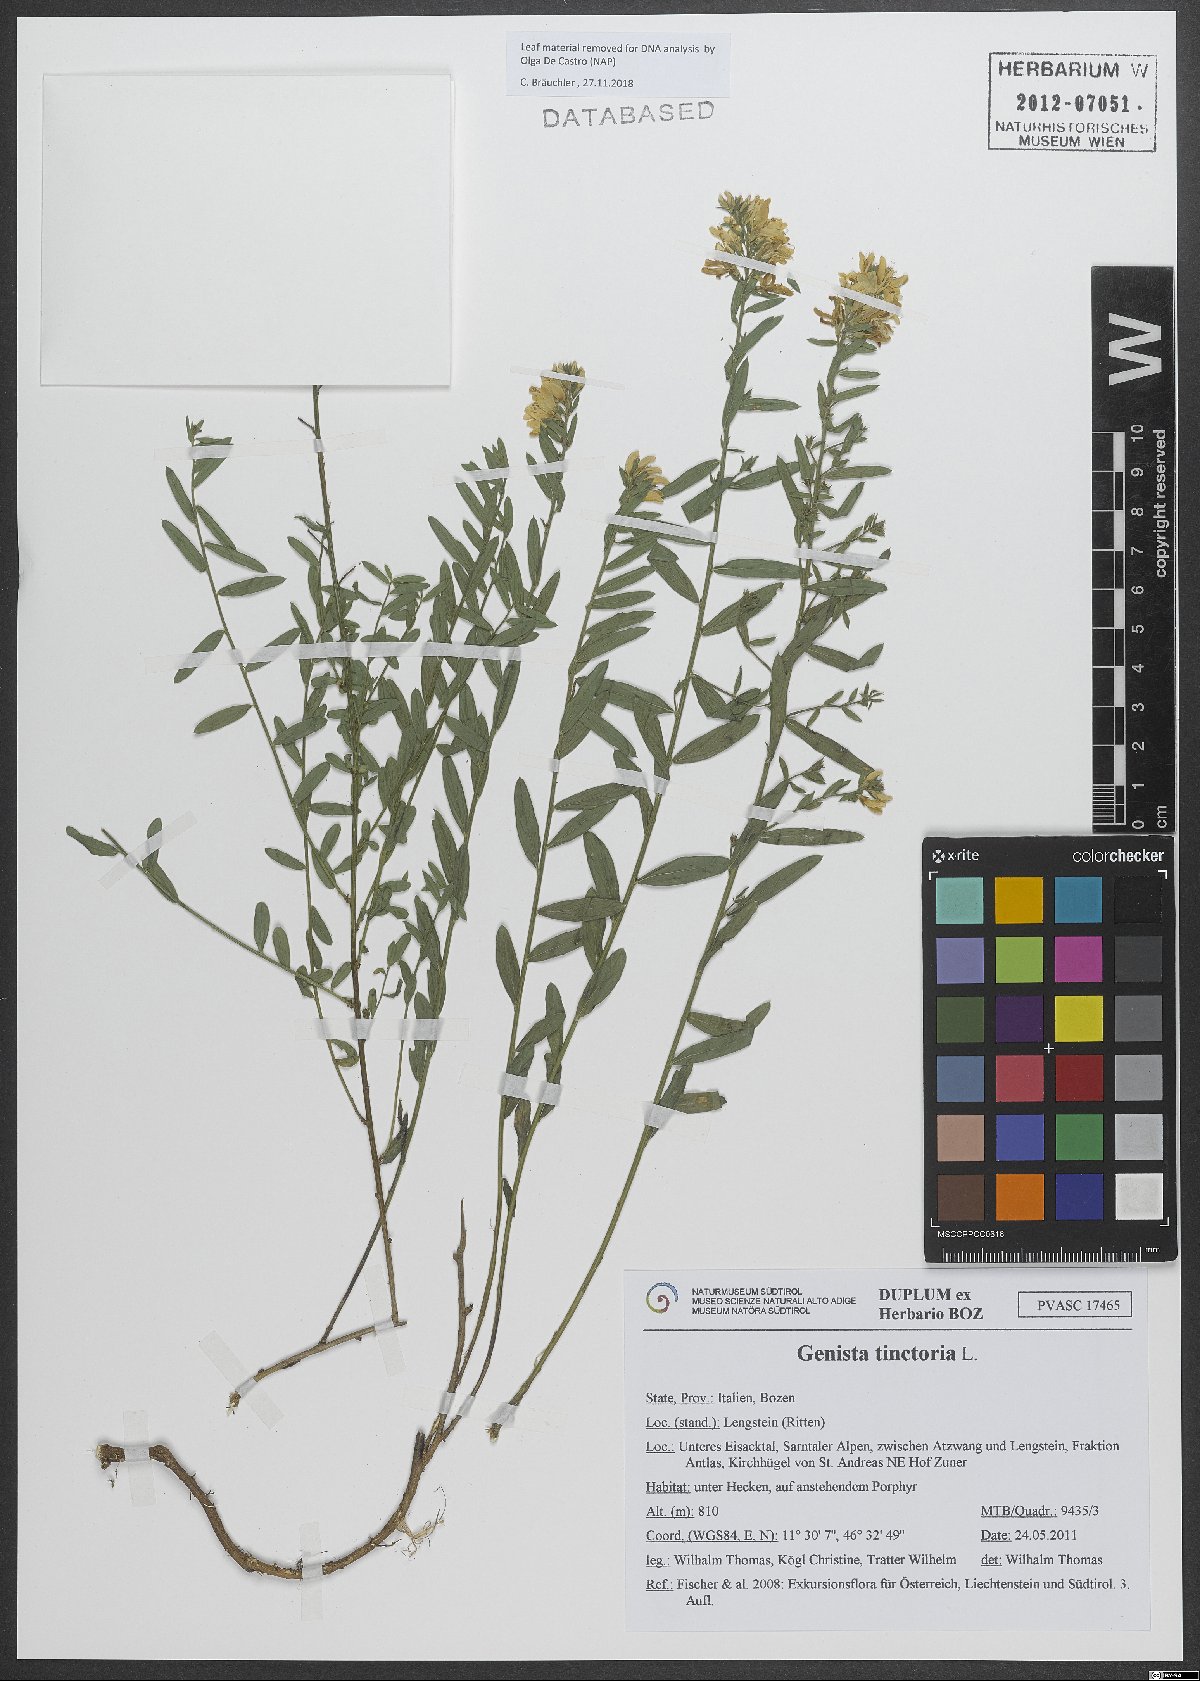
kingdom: Plantae
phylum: Tracheophyta
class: Magnoliopsida
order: Fabales
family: Fabaceae
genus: Genista
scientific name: Genista tinctoria
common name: Dyer's greenweed
